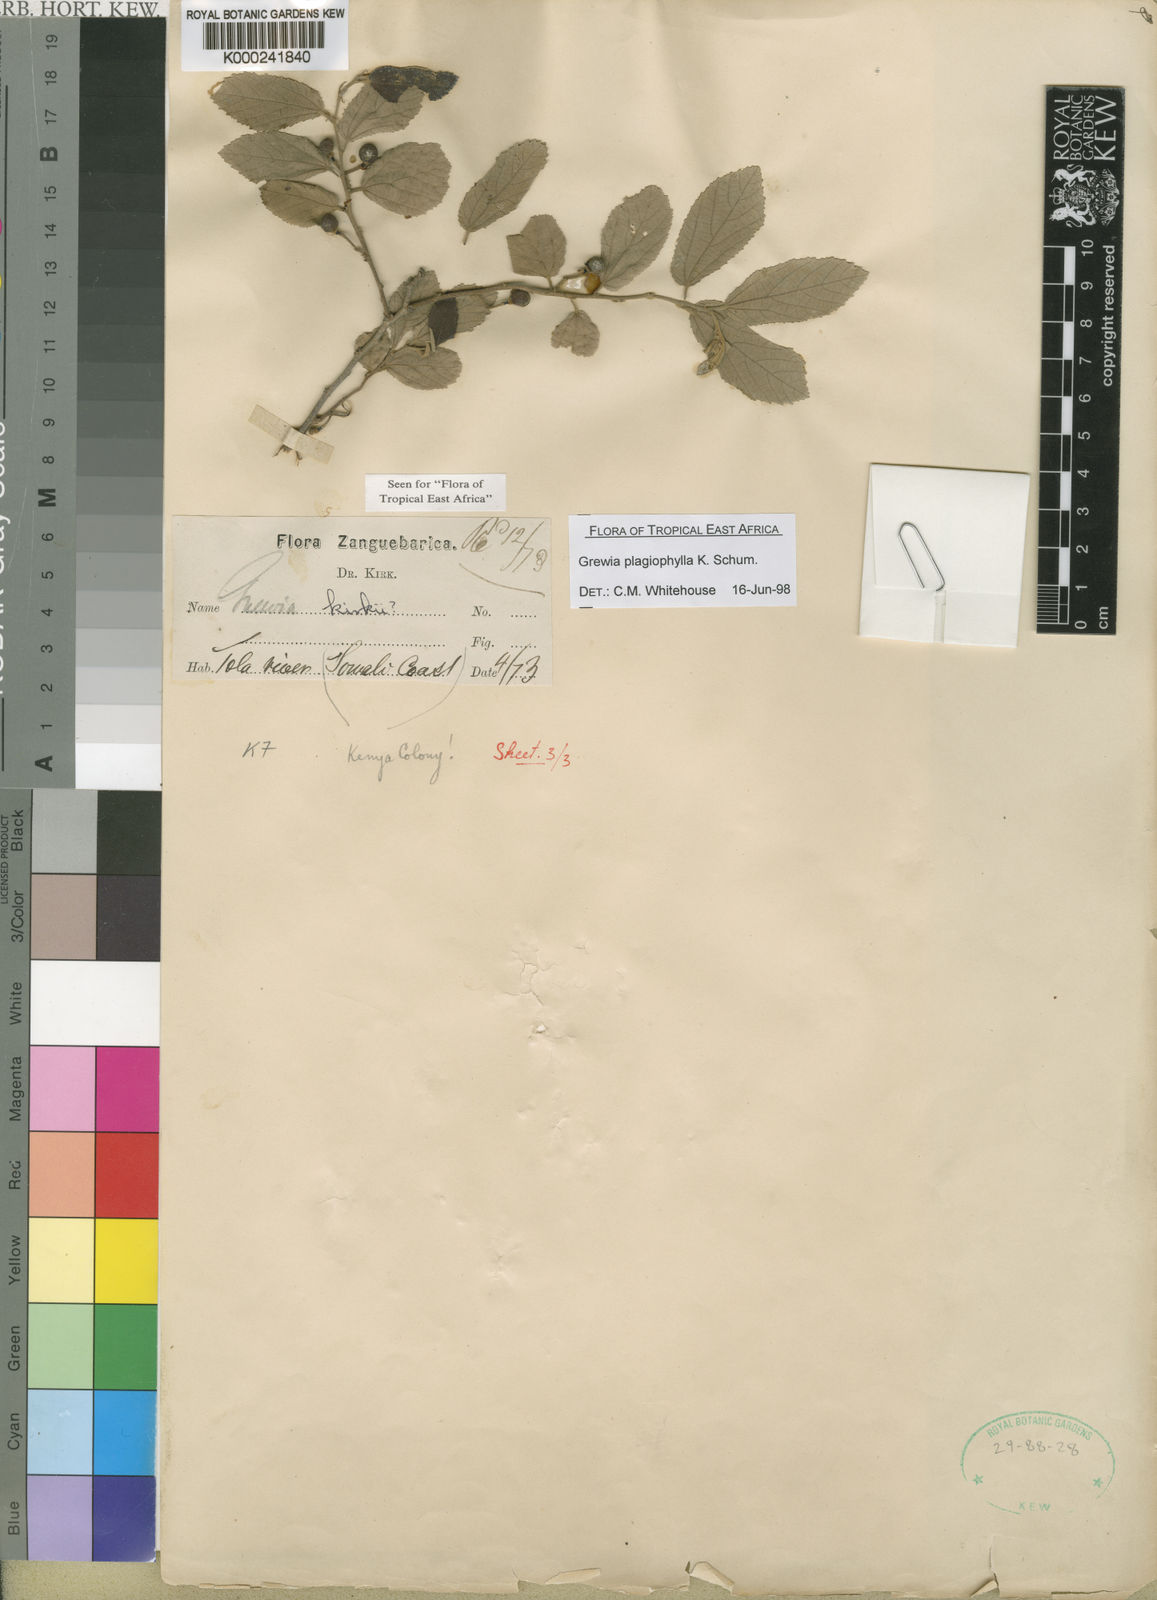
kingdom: Plantae
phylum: Tracheophyta
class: Magnoliopsida
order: Malvales
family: Malvaceae
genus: Grewia
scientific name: Grewia plagiophylla
